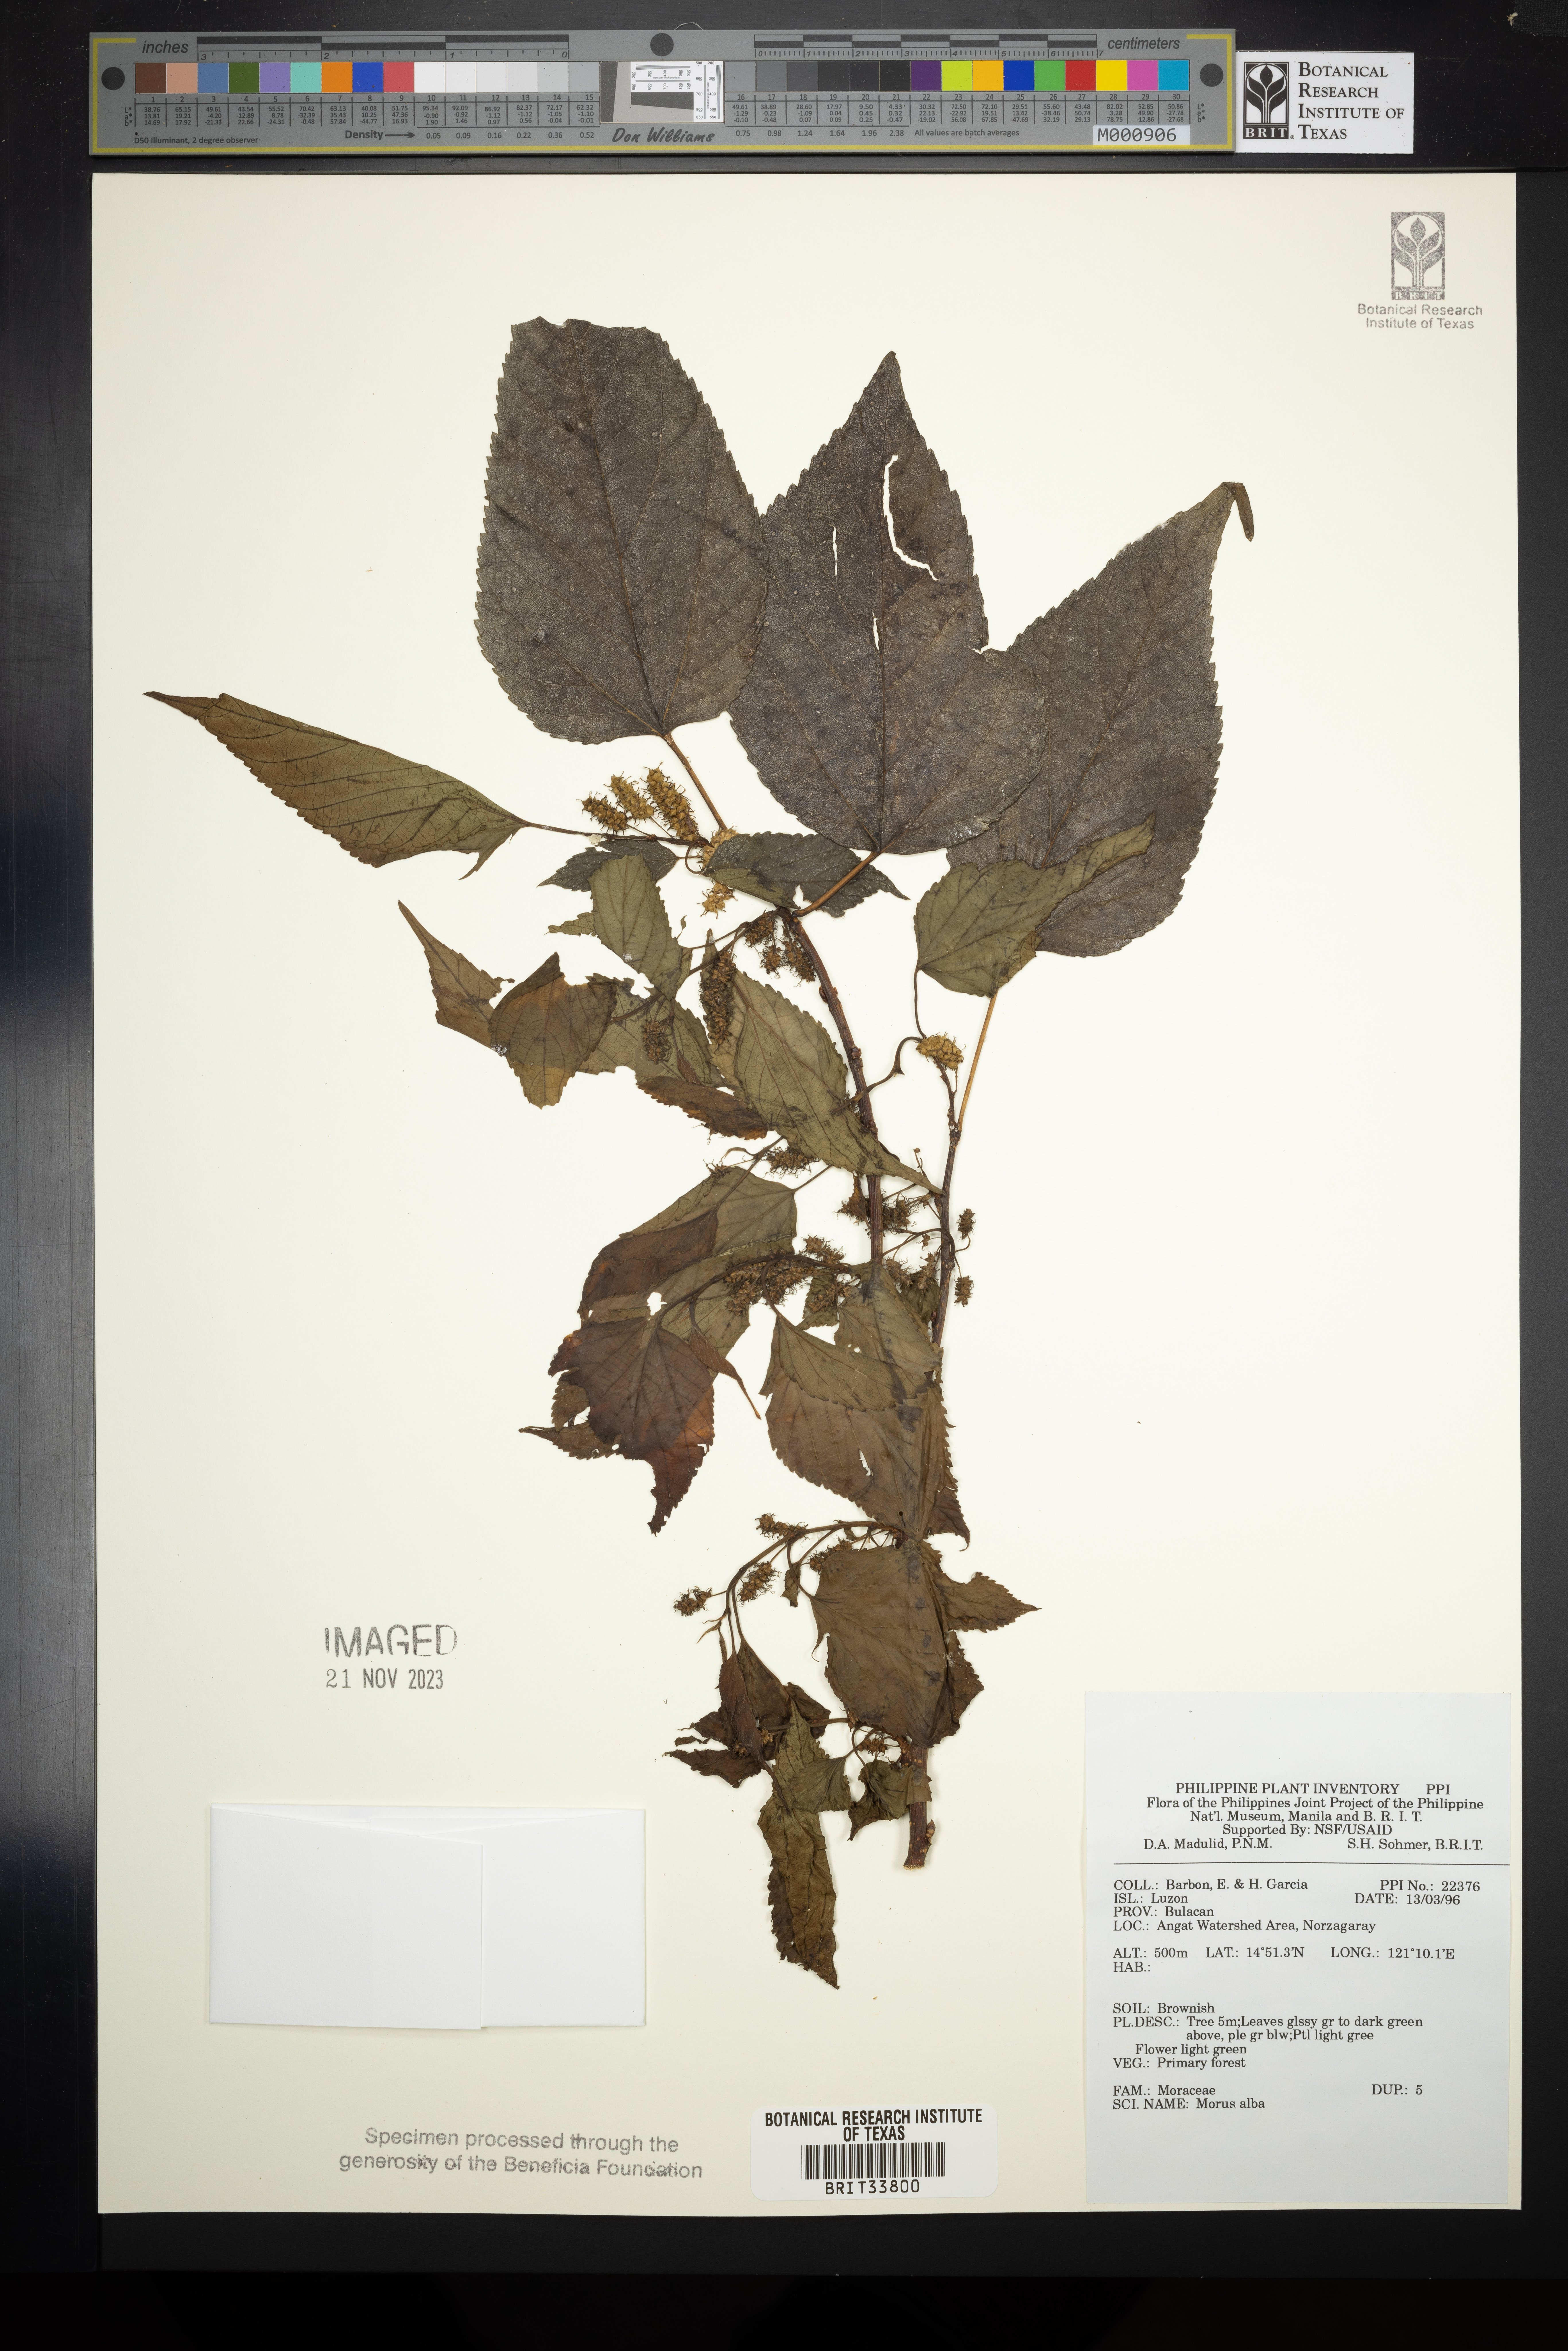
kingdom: Plantae
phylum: Tracheophyta
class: Magnoliopsida
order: Rosales
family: Moraceae
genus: Morus
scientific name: Morus alba
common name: White mulberry
